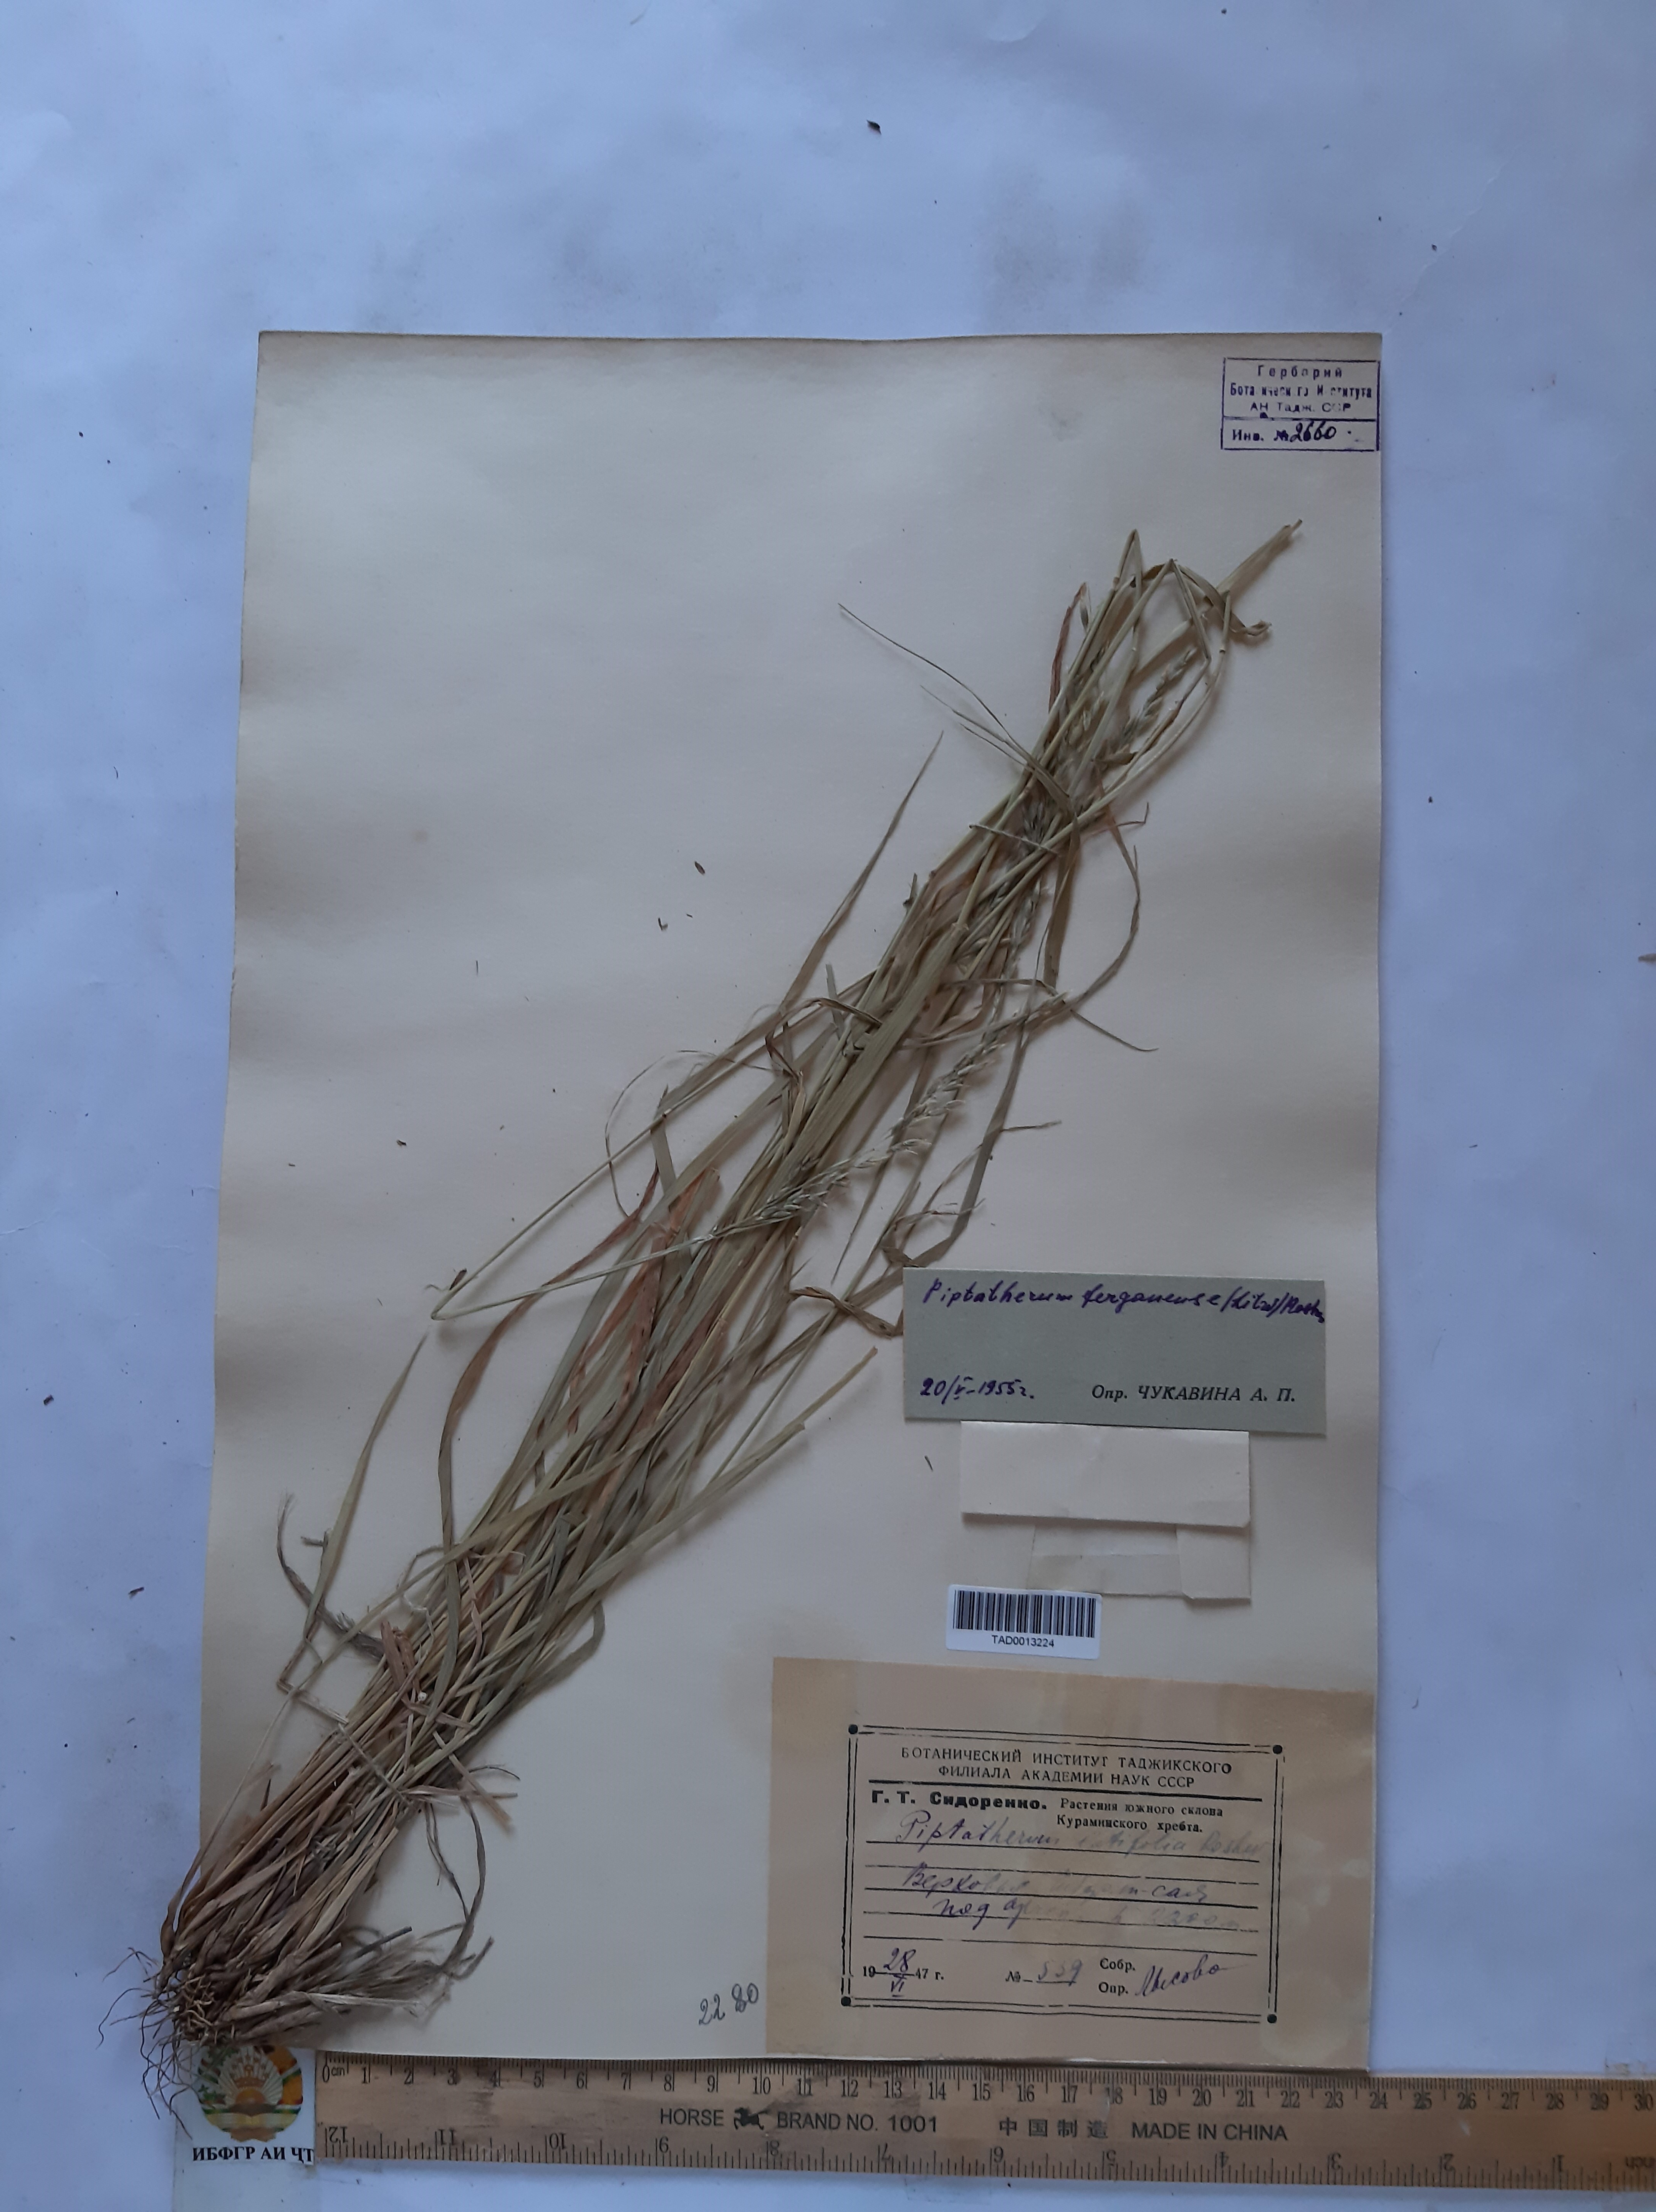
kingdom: Plantae
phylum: Tracheophyta
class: Liliopsida
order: Poales
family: Poaceae
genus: Piptatherum
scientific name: Piptatherum ferganense
